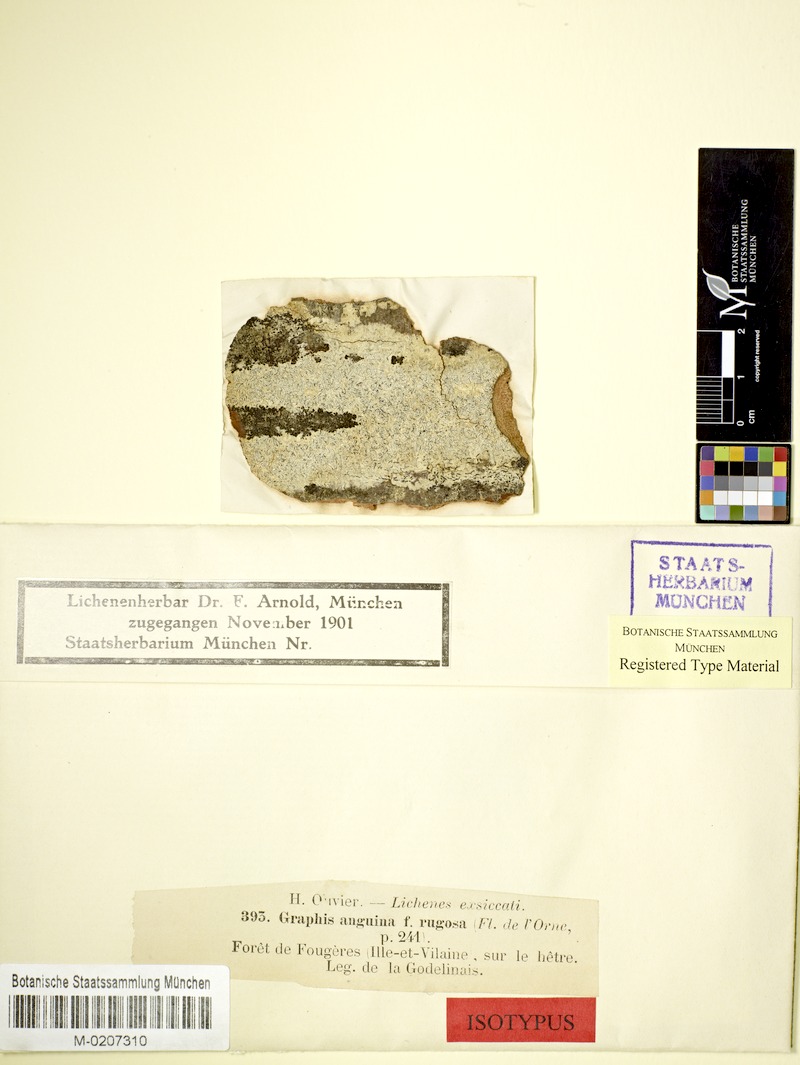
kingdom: Fungi
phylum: Ascomycota
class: Lecanoromycetes
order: Ostropales
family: Graphidaceae
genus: Graphina
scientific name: Graphina anguina
